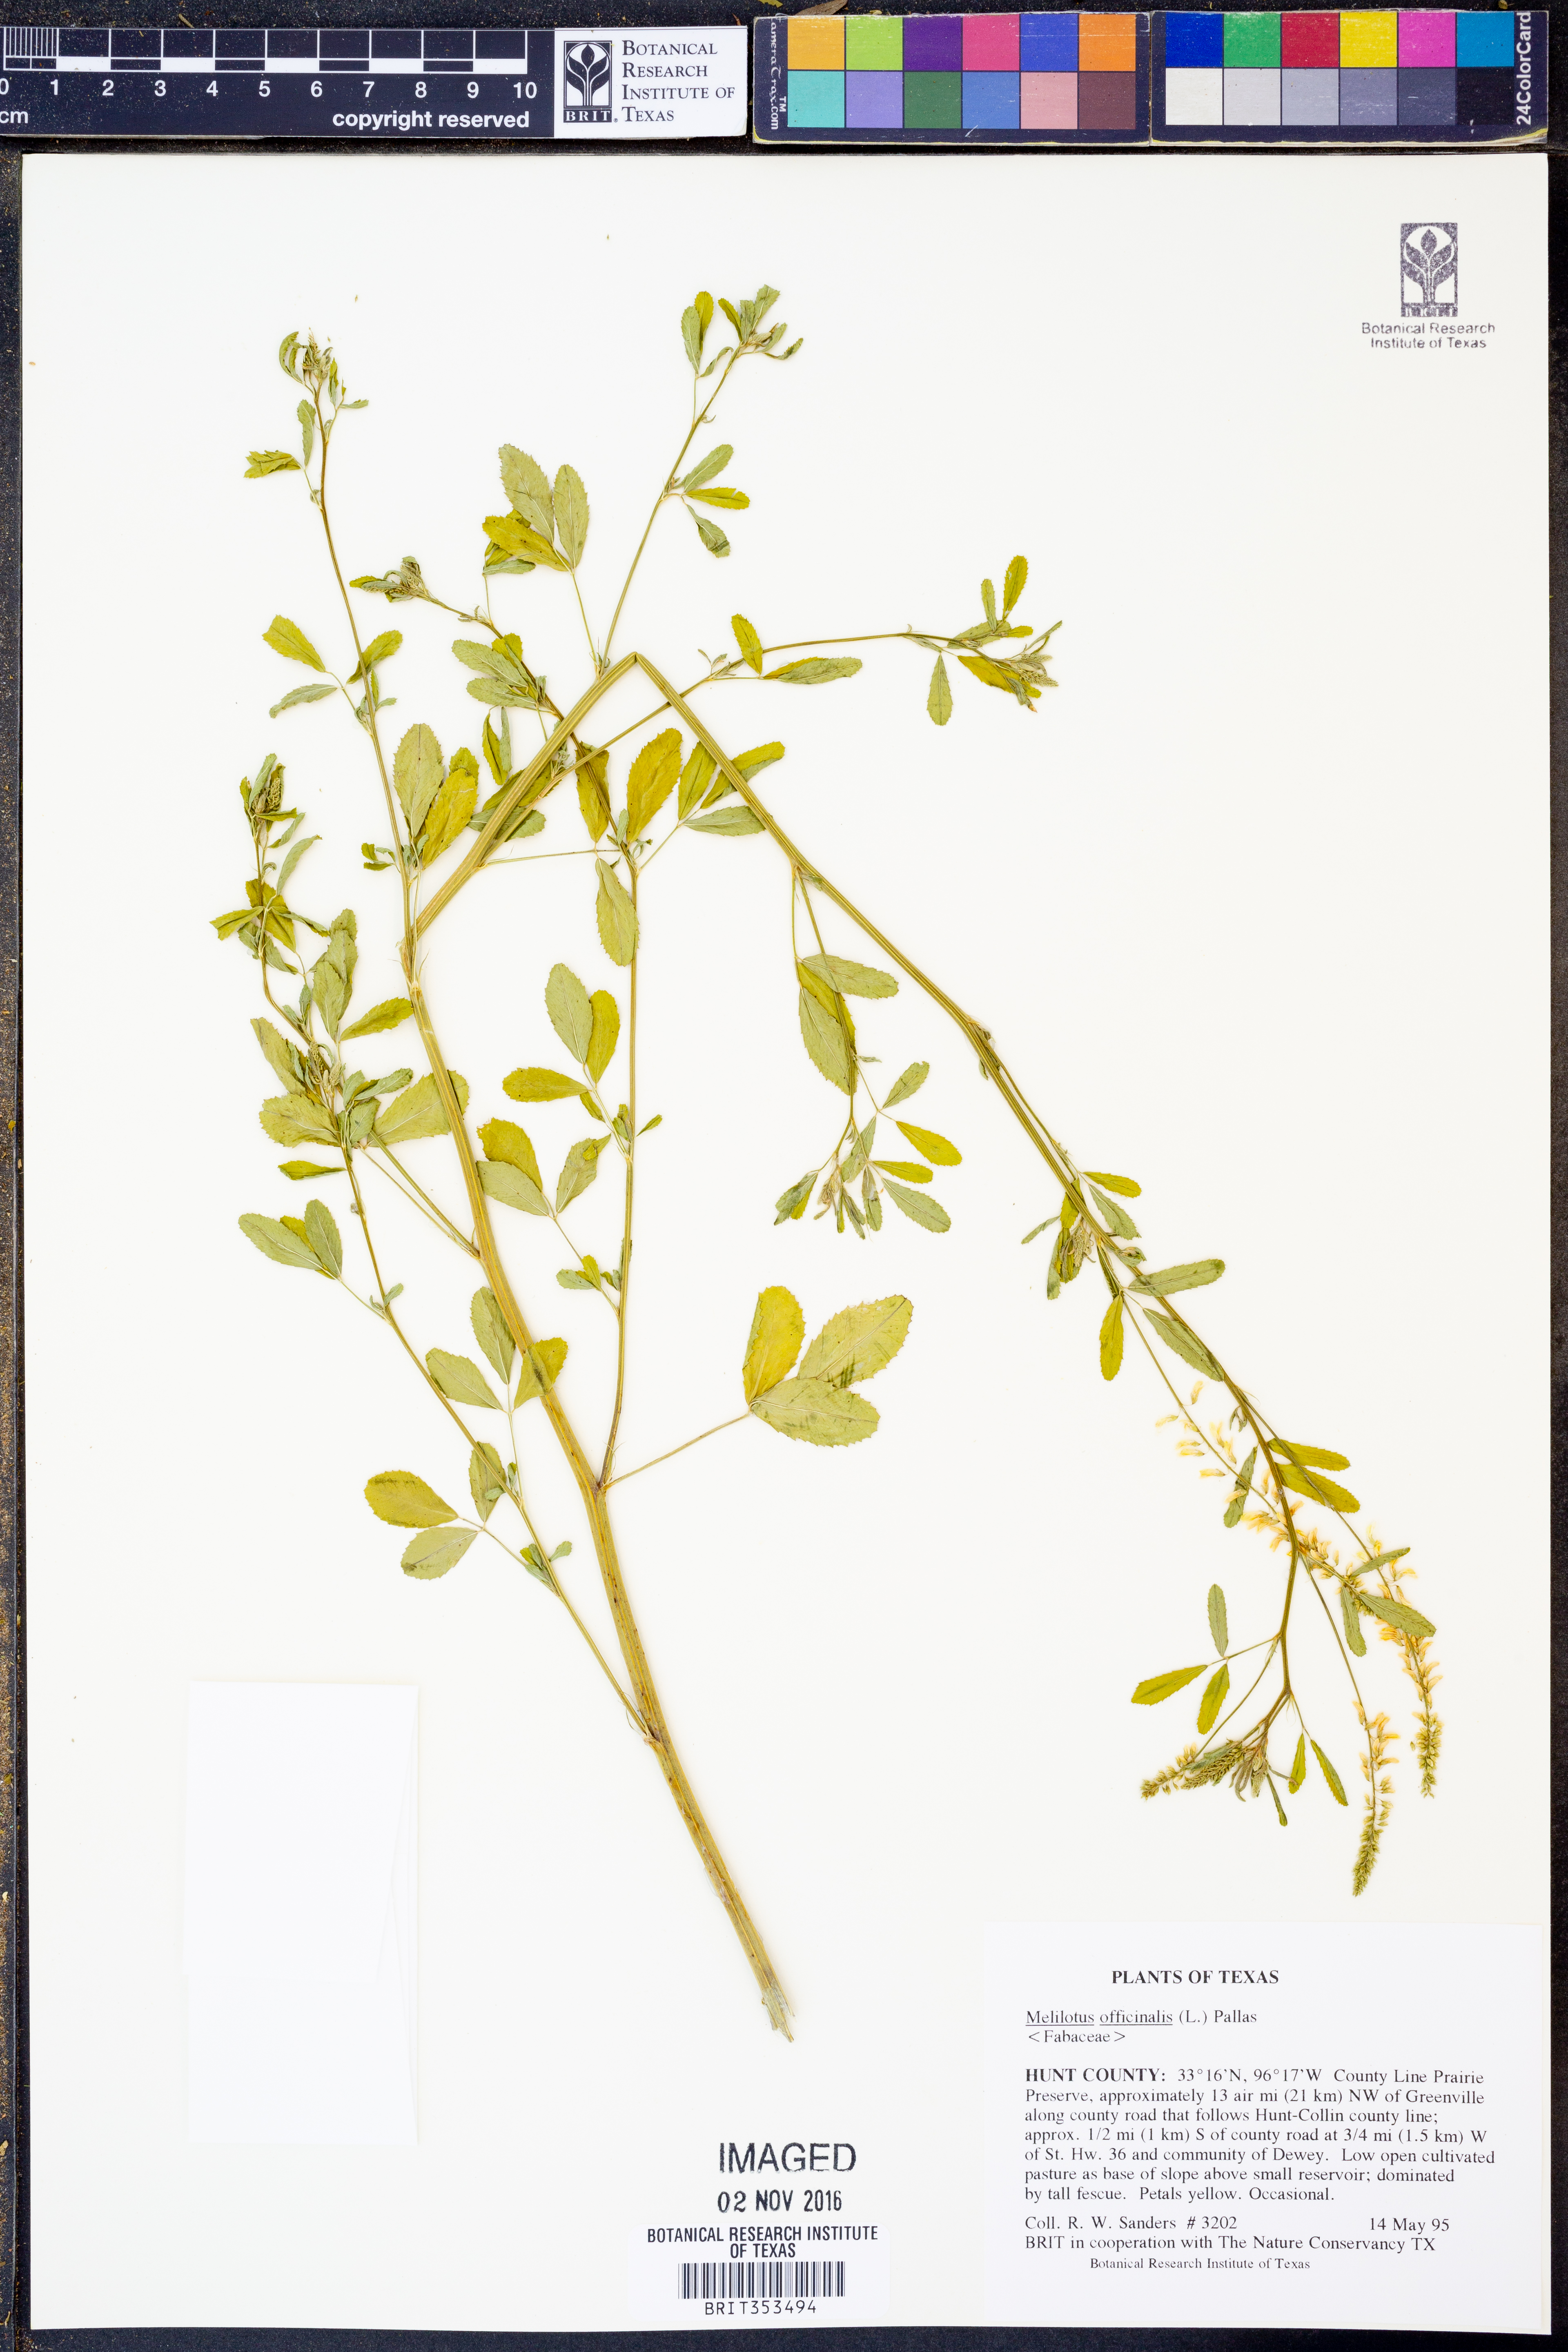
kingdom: Plantae
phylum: Tracheophyta
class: Magnoliopsida
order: Fabales
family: Fabaceae
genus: Melilotus
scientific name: Melilotus officinalis
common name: Sweetclover
